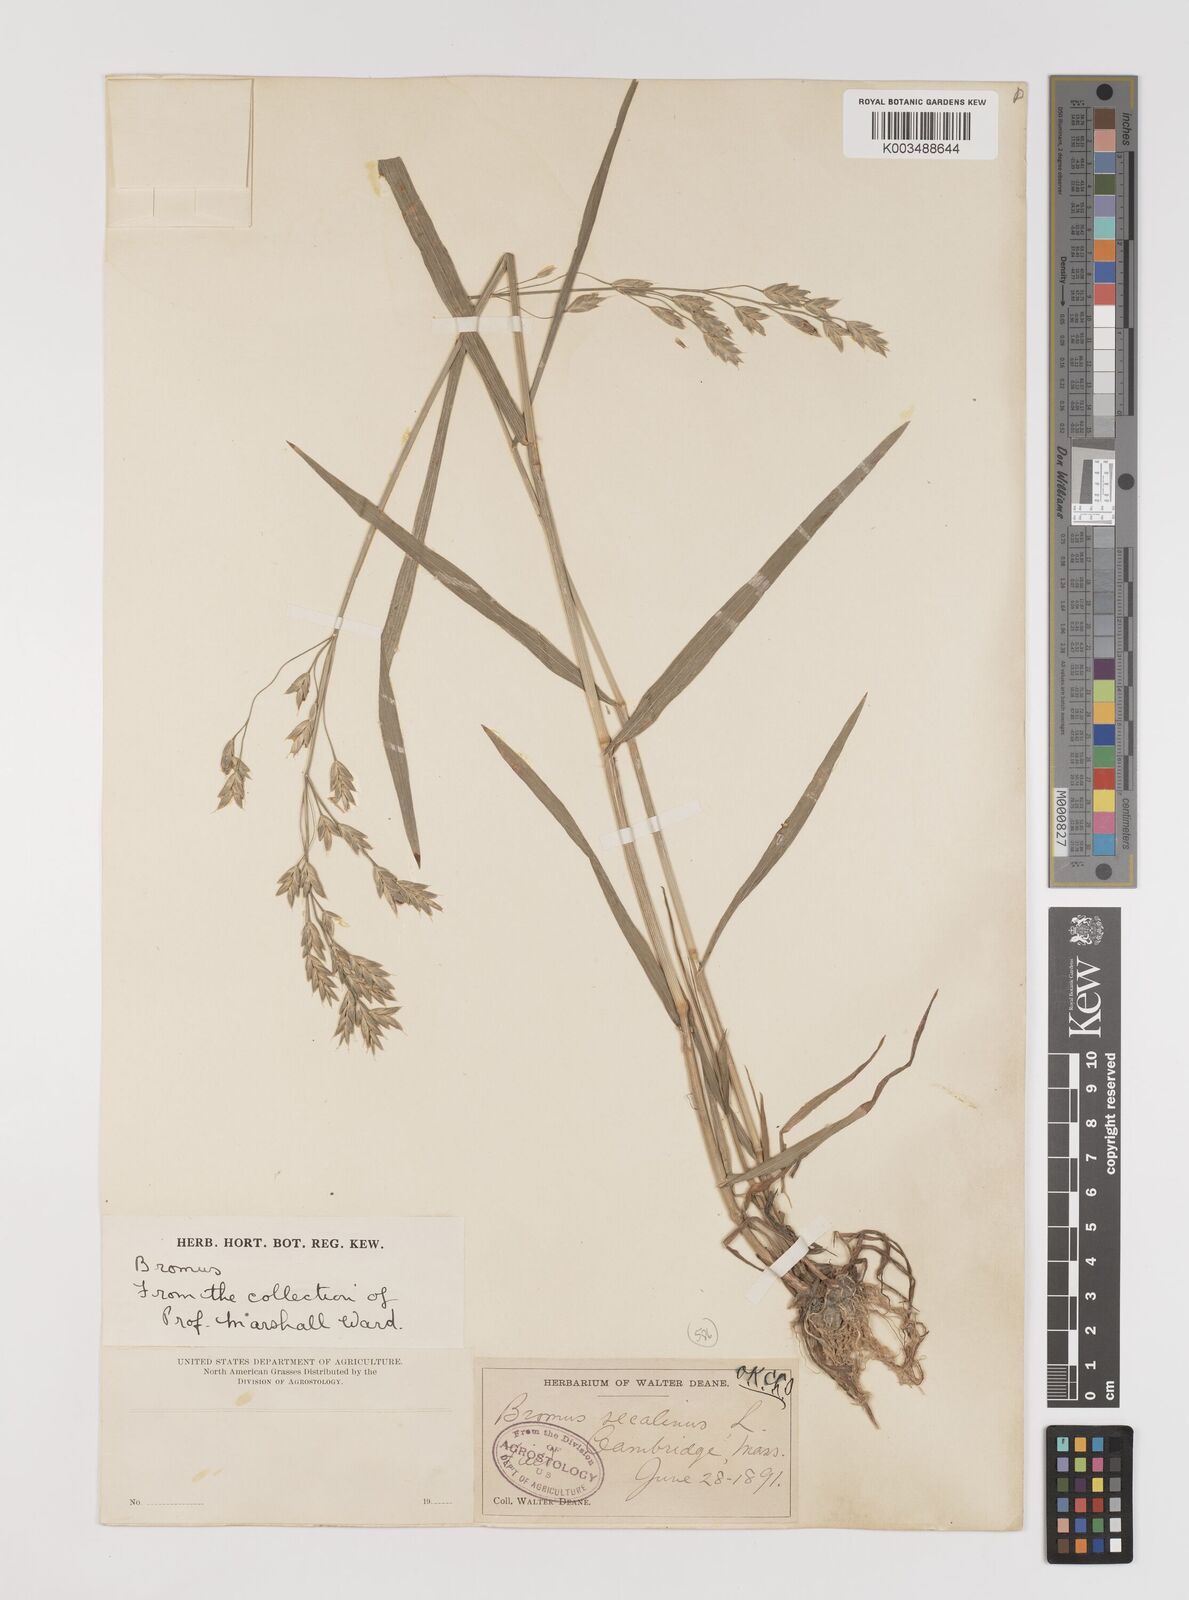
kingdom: Plantae
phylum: Tracheophyta
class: Liliopsida
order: Poales
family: Poaceae
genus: Bromus
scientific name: Bromus secalinus
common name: Rye brome
